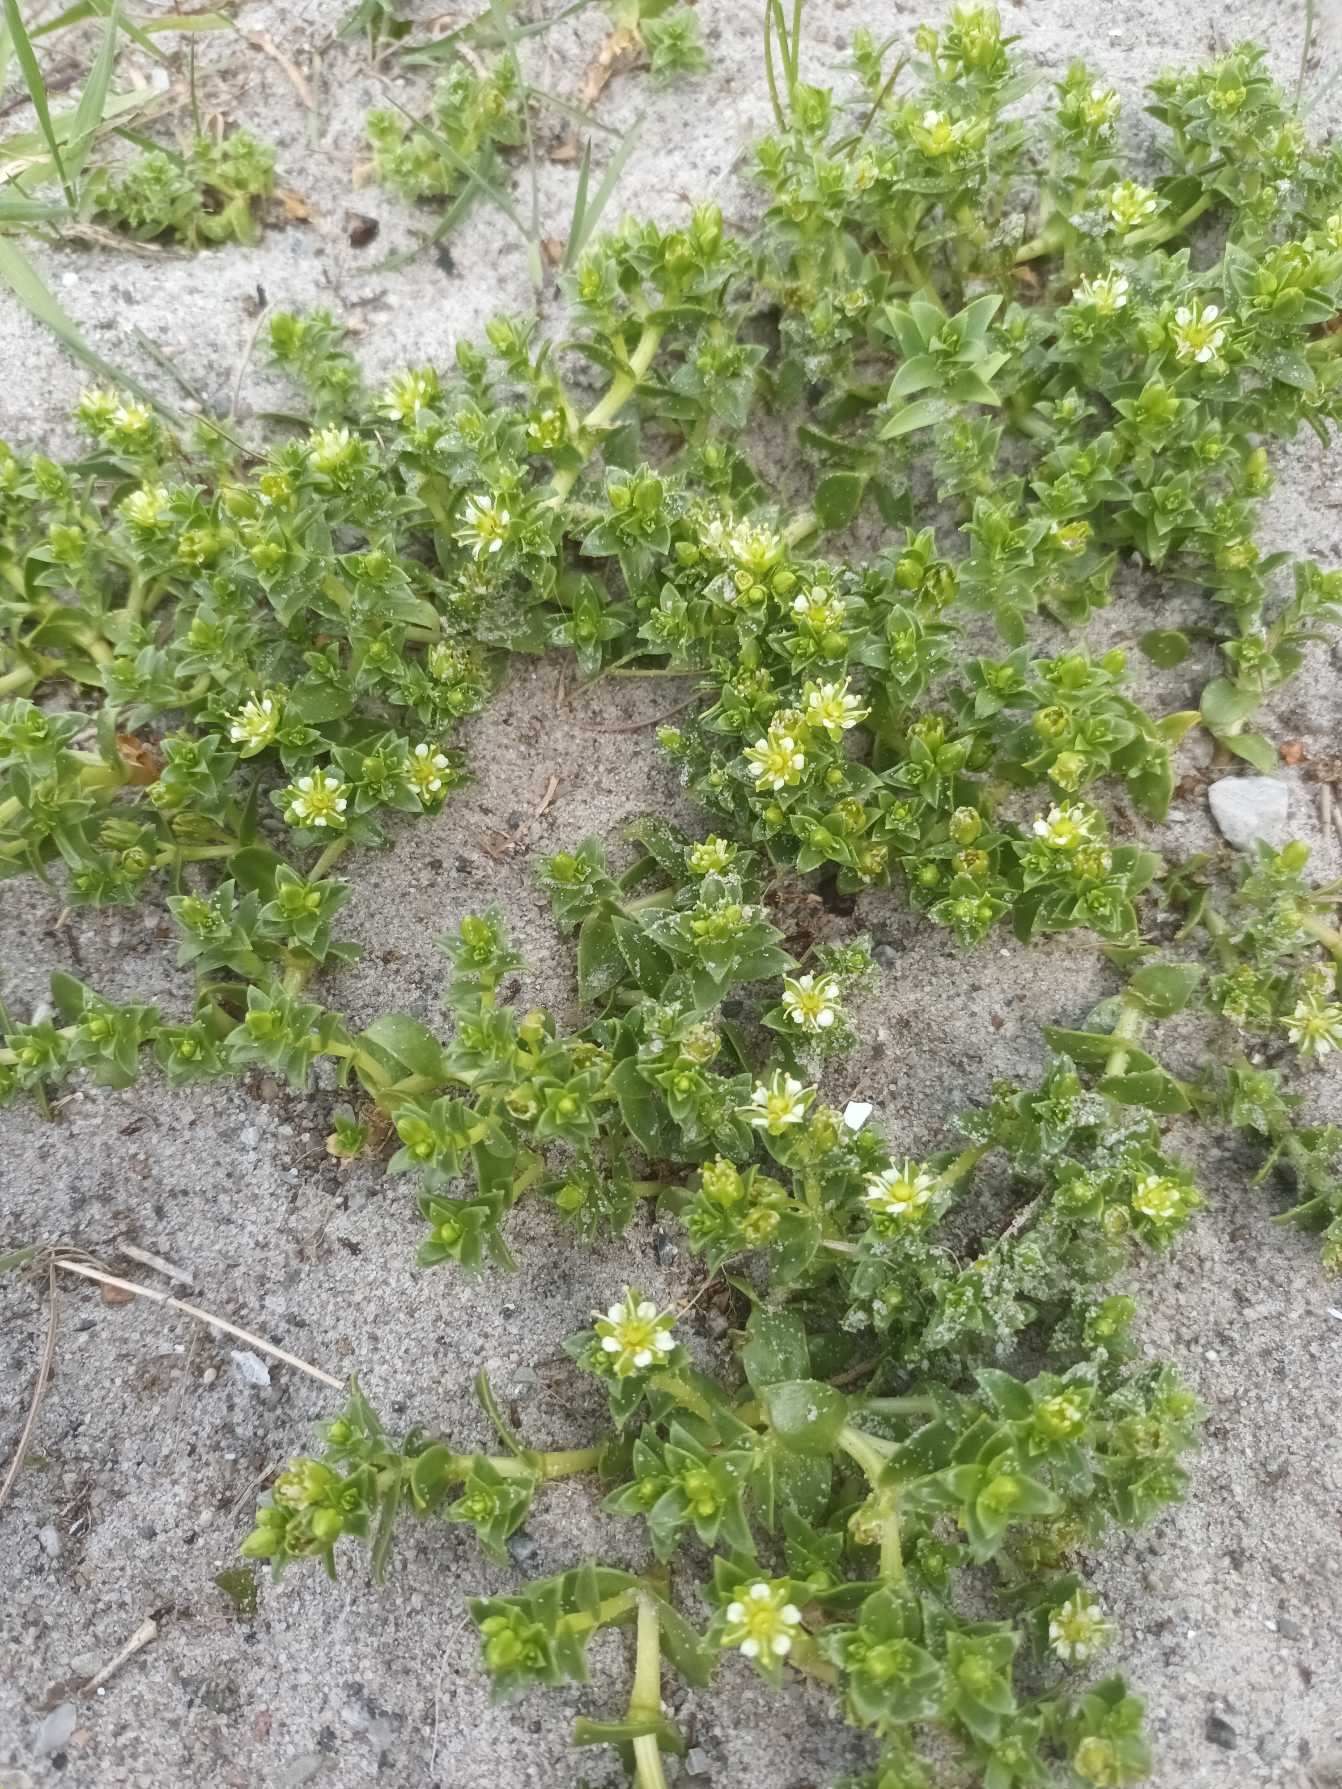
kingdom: Plantae
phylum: Tracheophyta
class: Magnoliopsida
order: Caryophyllales
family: Caryophyllaceae
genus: Honckenya
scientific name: Honckenya peploides
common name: Strandarve
